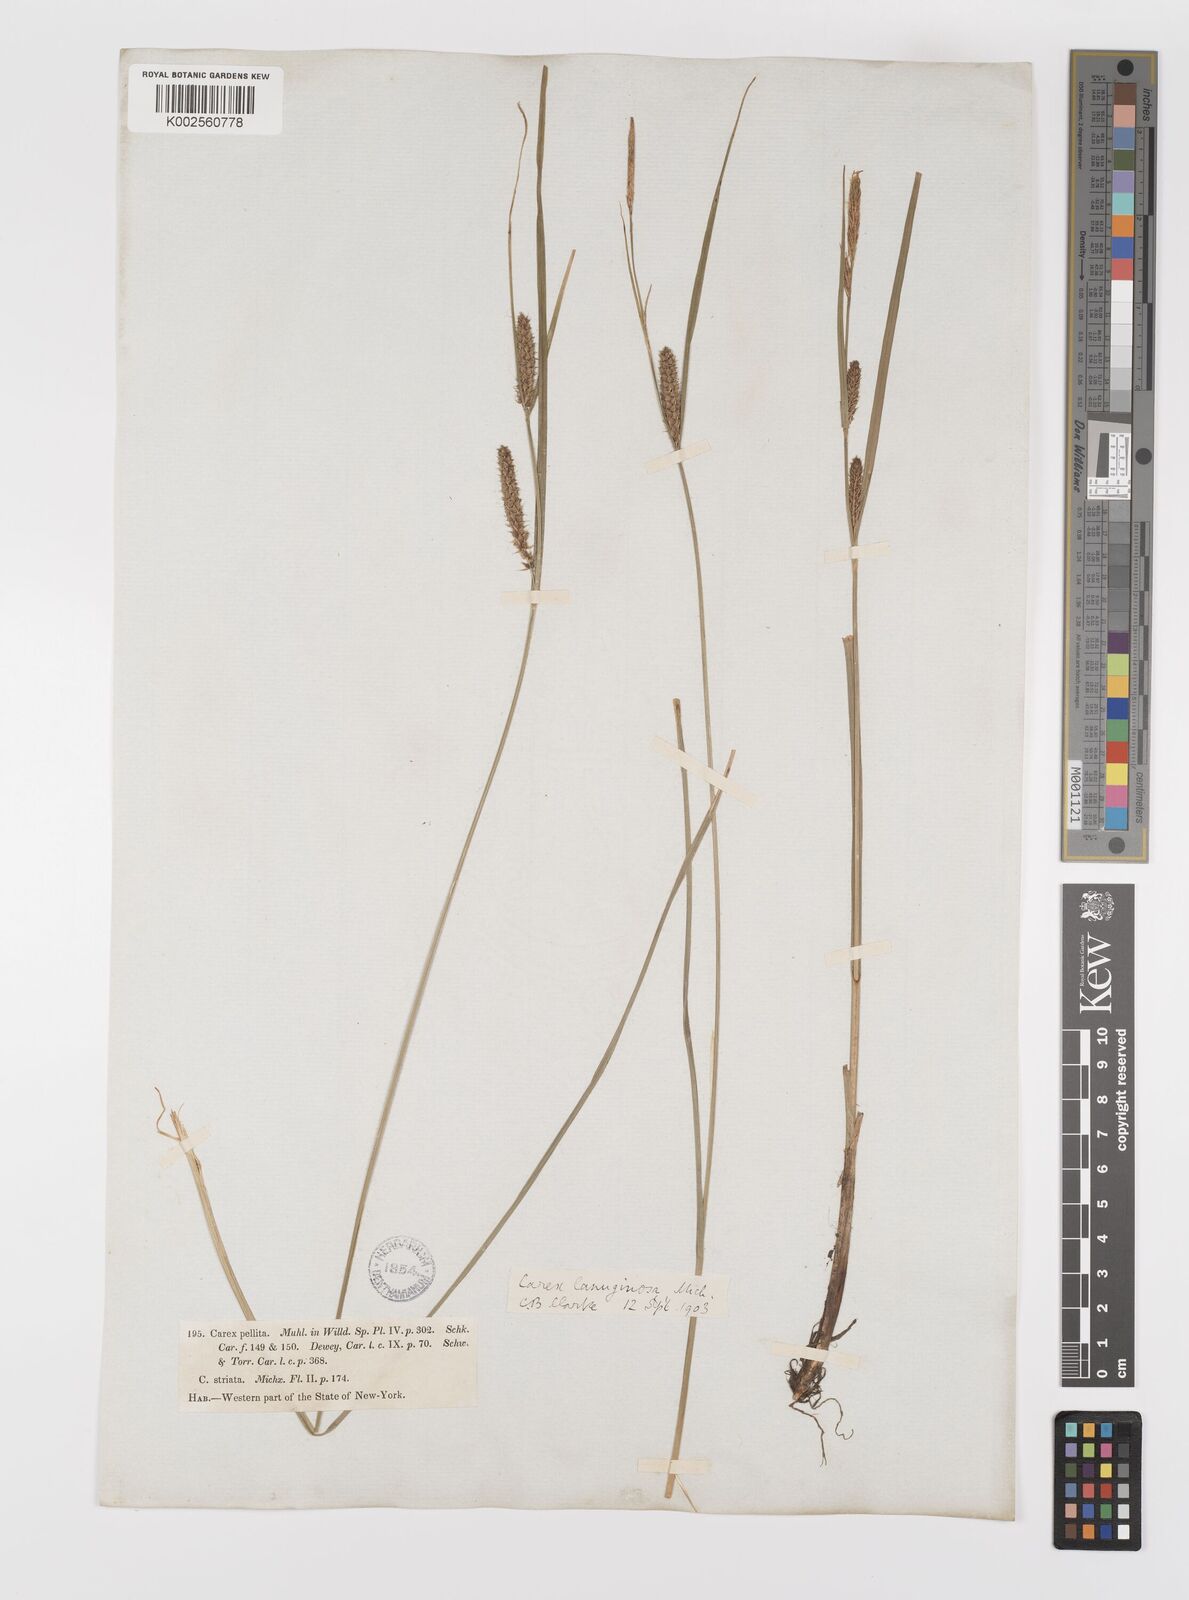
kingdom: Plantae
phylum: Tracheophyta
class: Liliopsida
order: Poales
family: Cyperaceae
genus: Carex
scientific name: Carex lasiocarpa
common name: Slender sedge
